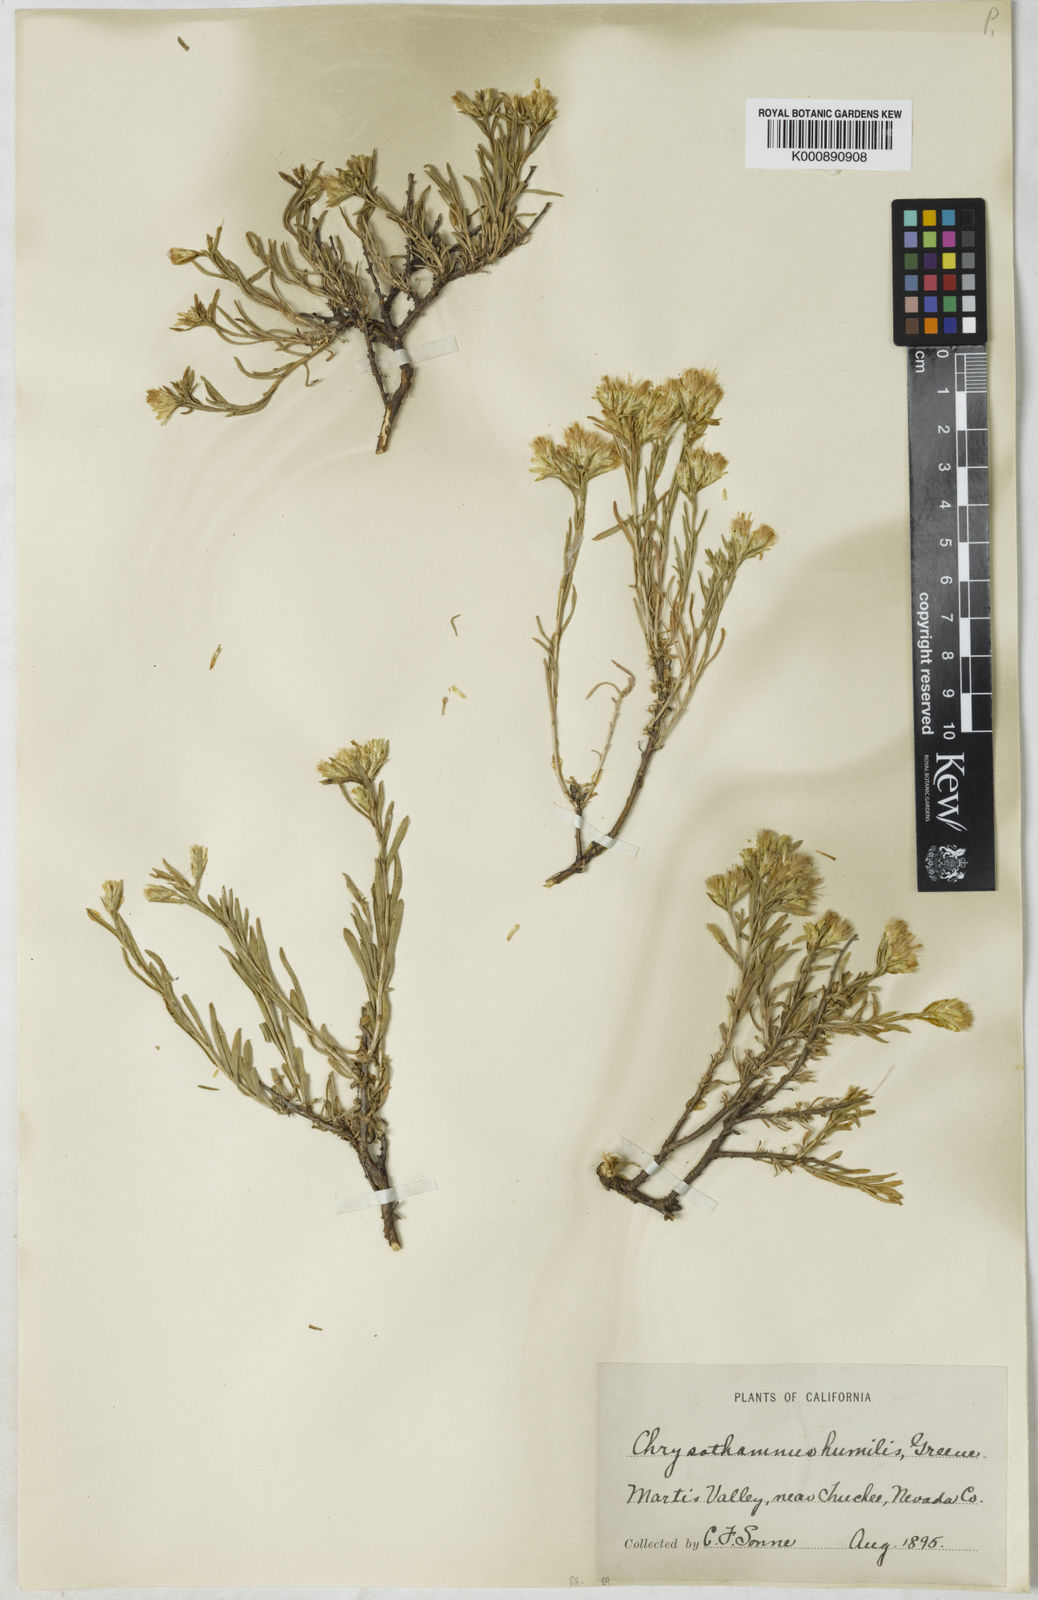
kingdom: Plantae
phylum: Tracheophyta
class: Magnoliopsida
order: Asterales
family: Asteraceae
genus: Chrysothamnus
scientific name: Chrysothamnus humilis
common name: Truckee rabbitbrush
